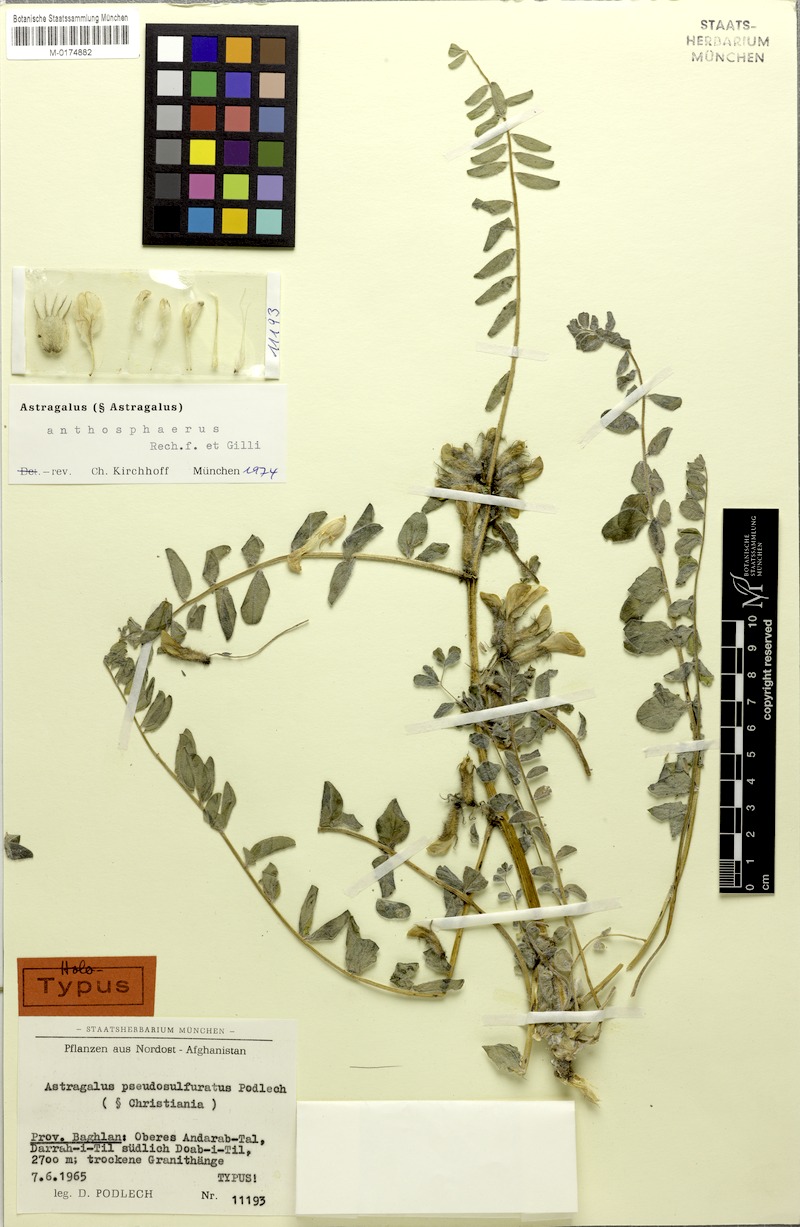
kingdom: Plantae
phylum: Tracheophyta
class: Magnoliopsida
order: Fabales
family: Fabaceae
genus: Astragalus
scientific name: Astragalus anthosphaerus
